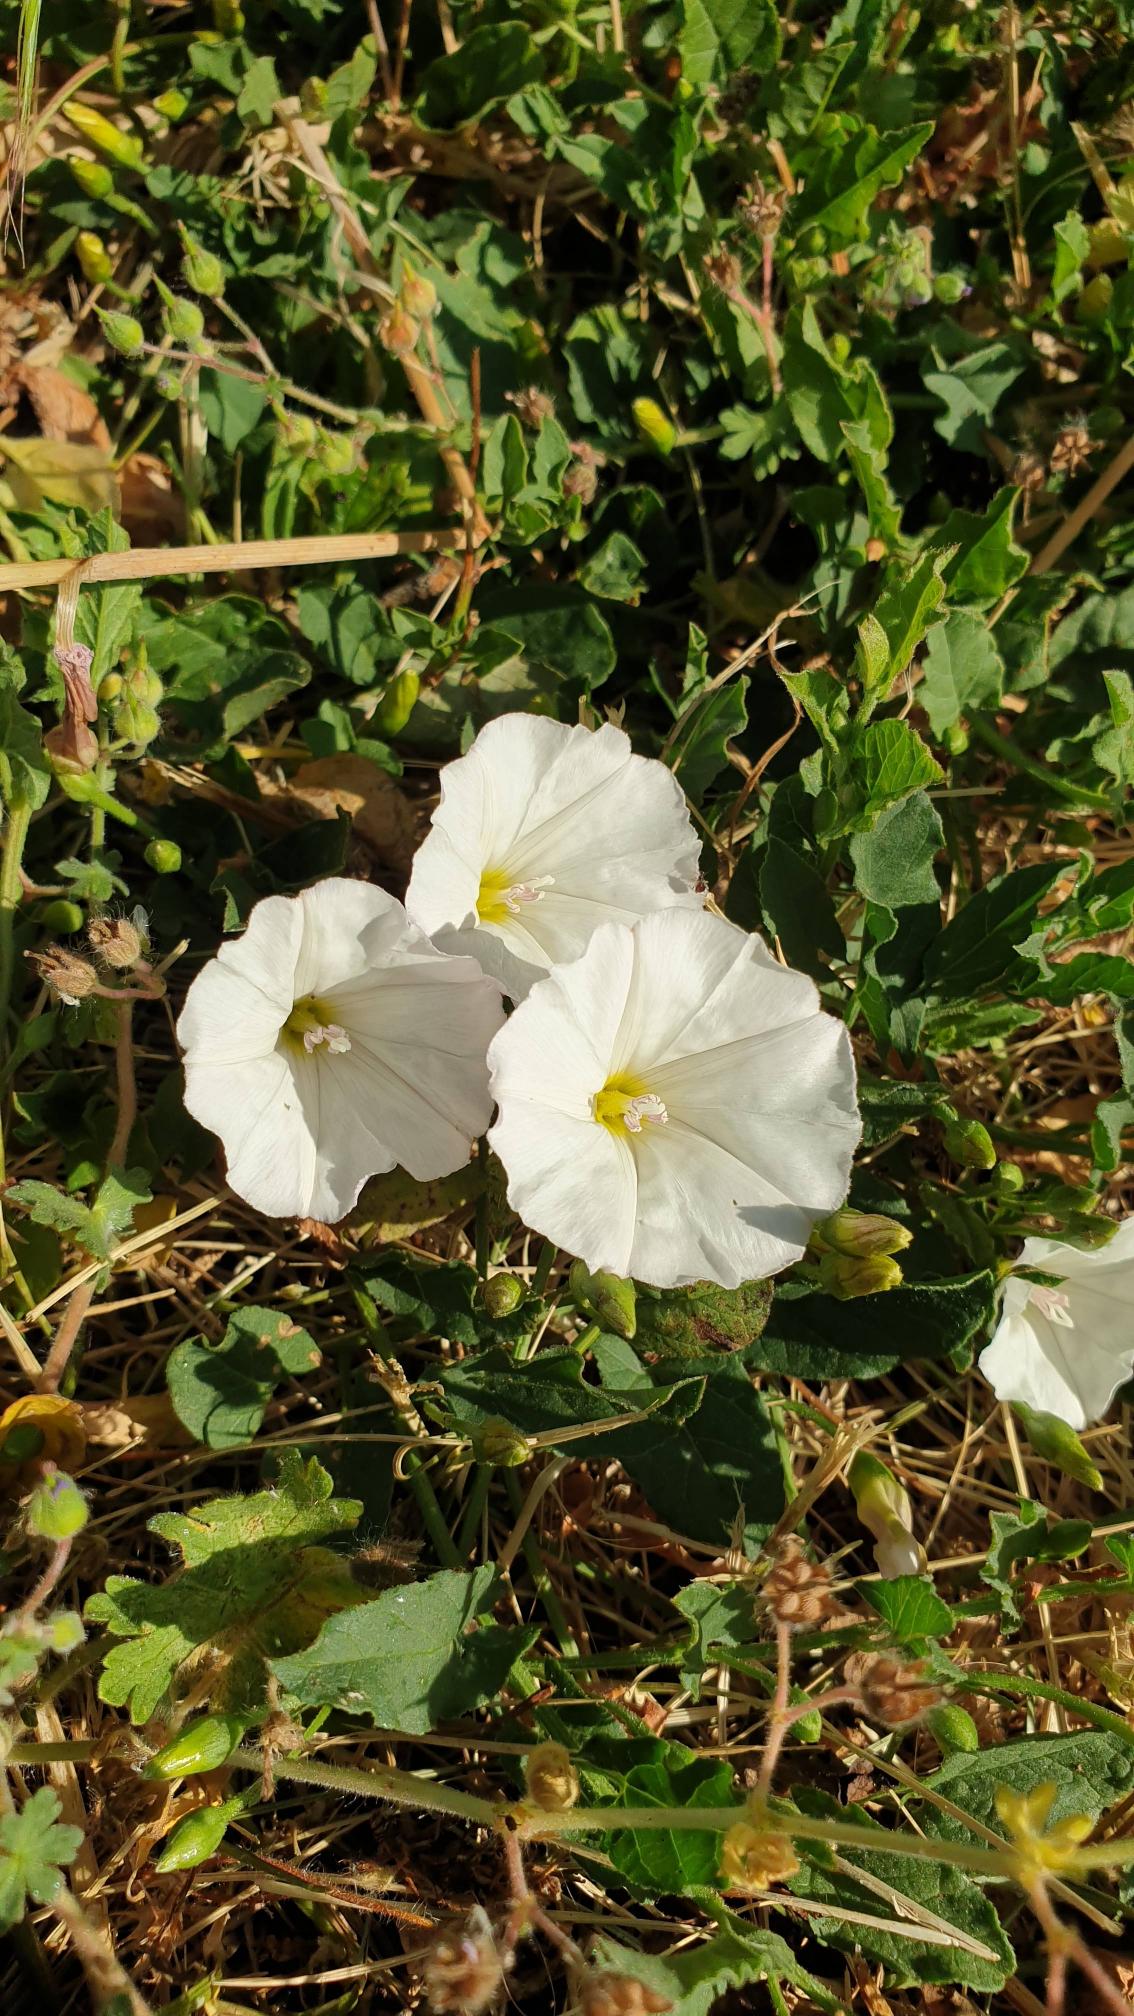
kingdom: Plantae
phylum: Tracheophyta
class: Magnoliopsida
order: Solanales
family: Convolvulaceae
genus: Convolvulus
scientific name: Convolvulus arvensis
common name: Ager-snerle
